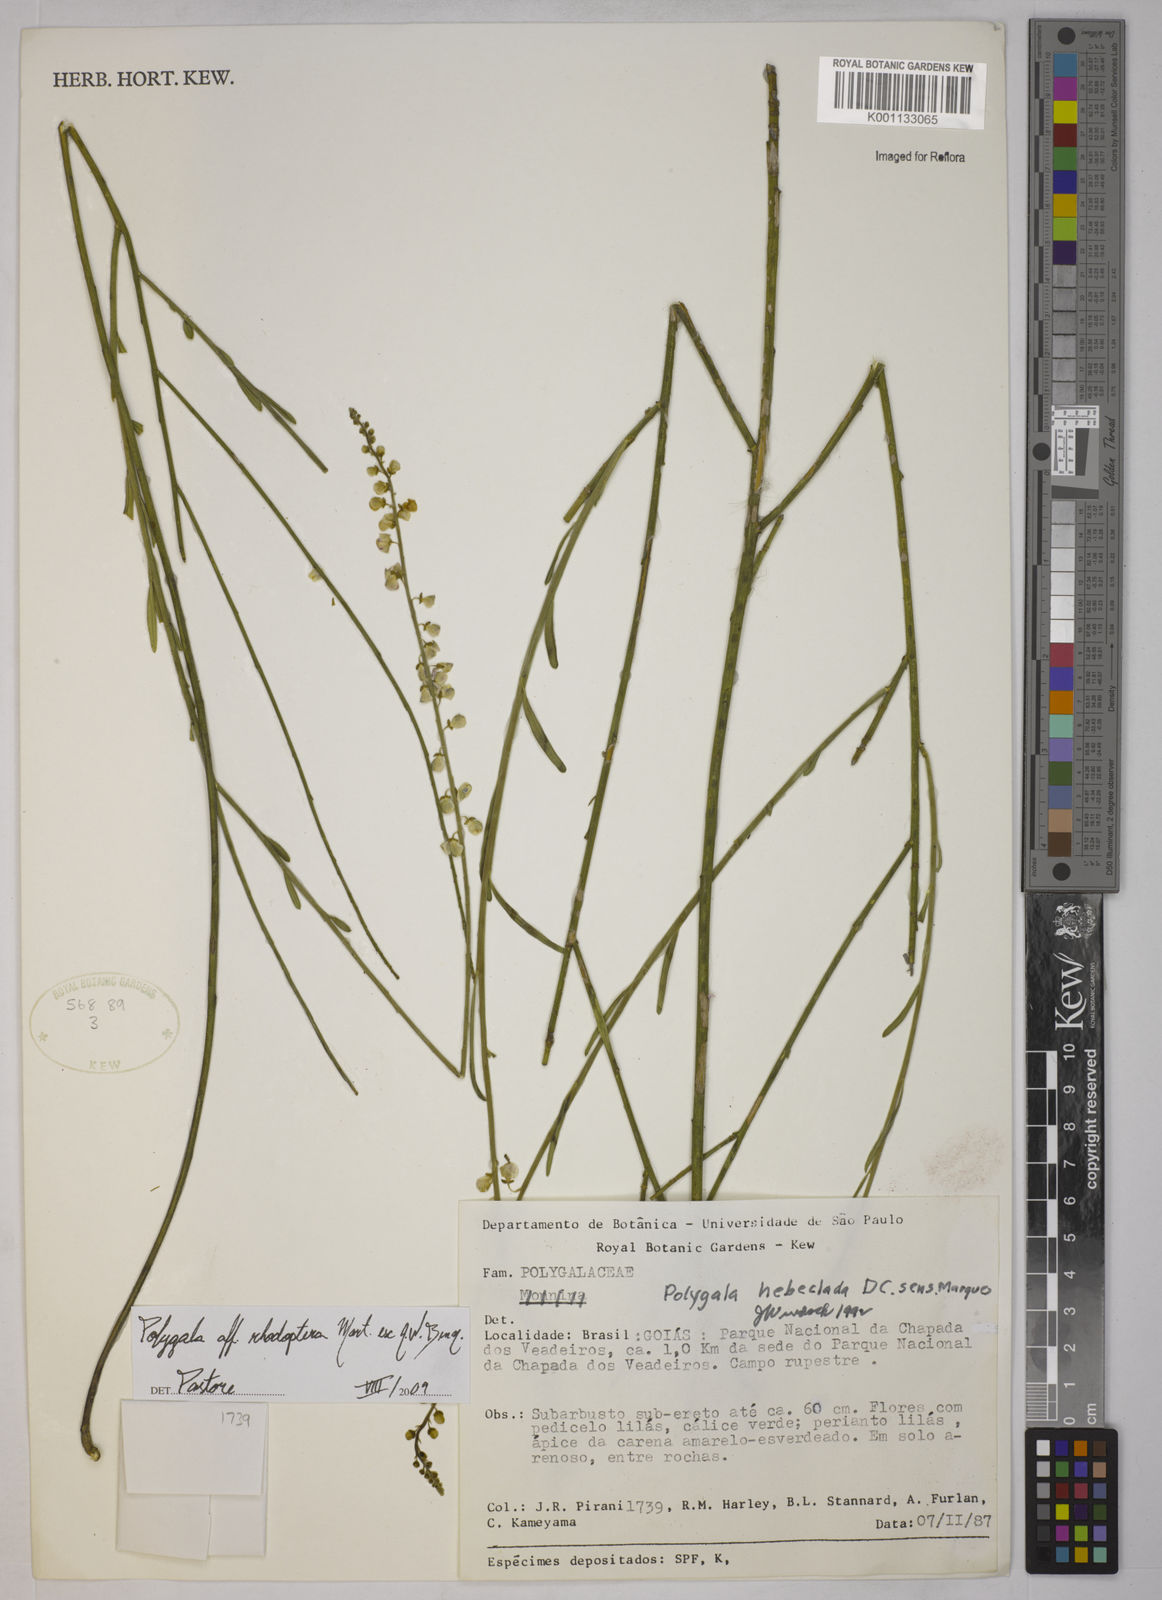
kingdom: Plantae
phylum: Tracheophyta
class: Magnoliopsida
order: Fabales
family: Polygalaceae
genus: Asemeia
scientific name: Asemeia rhodoptera
